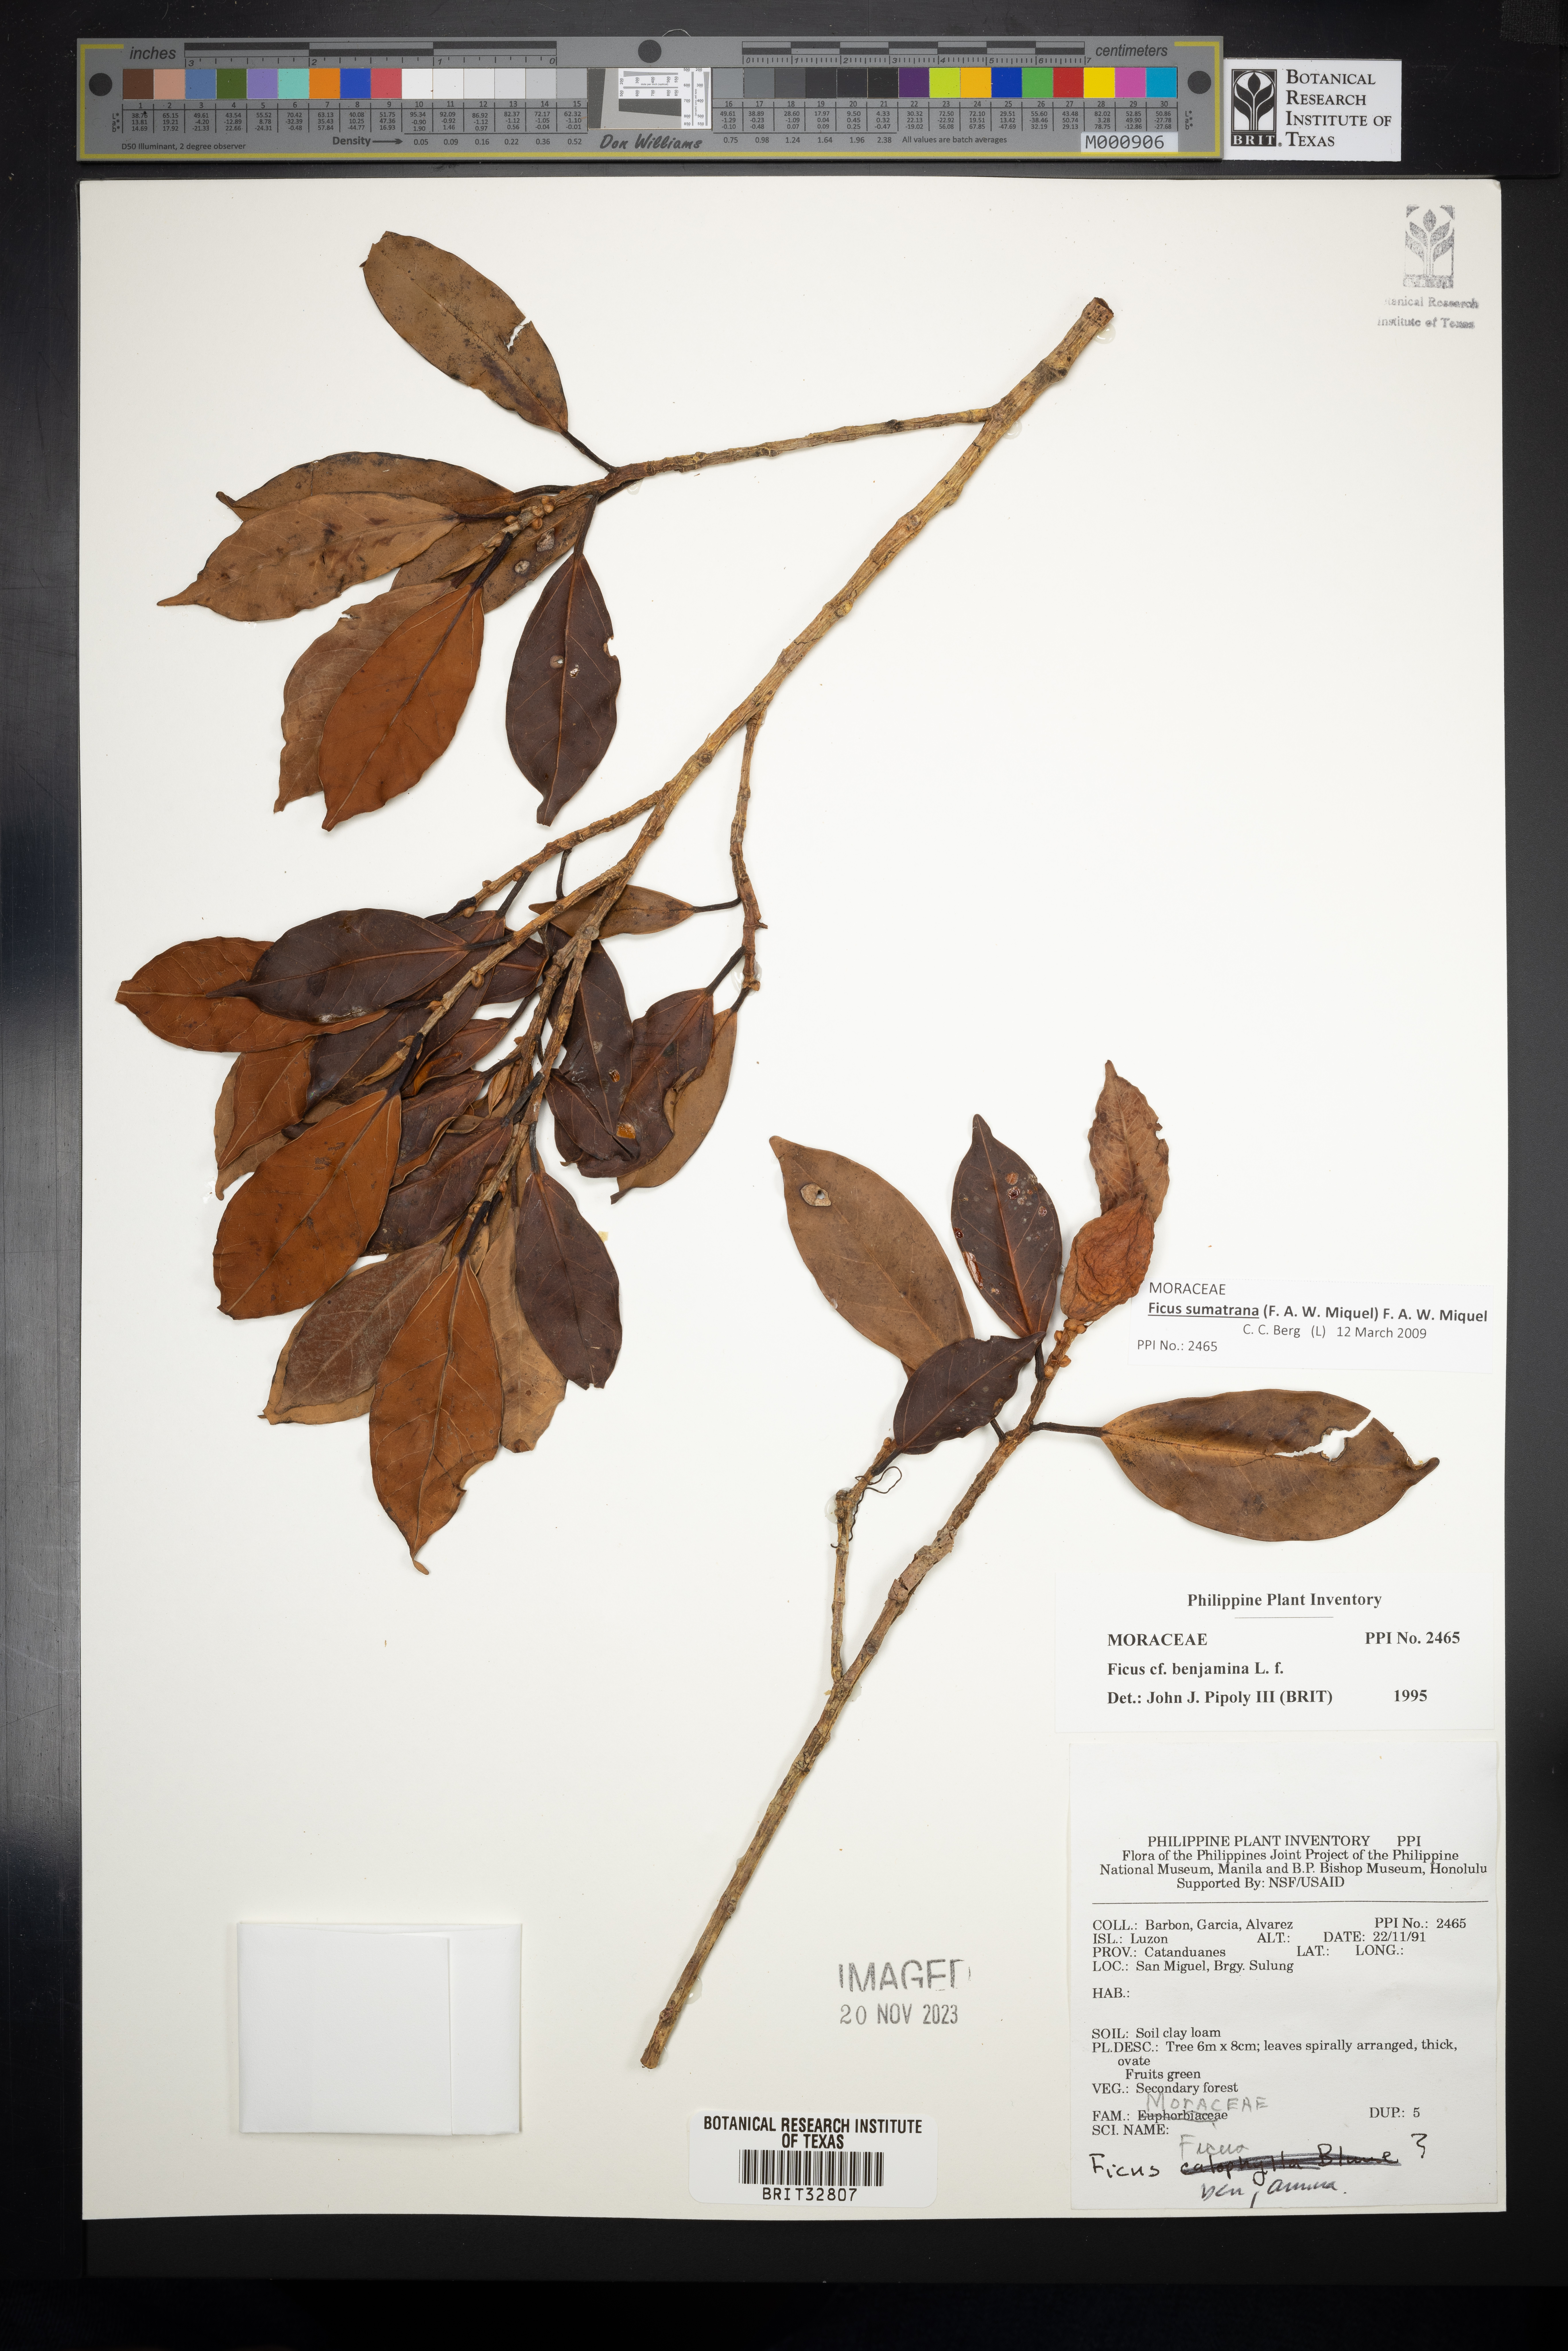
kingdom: Plantae
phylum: Tracheophyta
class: Magnoliopsida
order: Rosales
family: Moraceae
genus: Ficus
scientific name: Ficus benjamina
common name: Weeping fig
